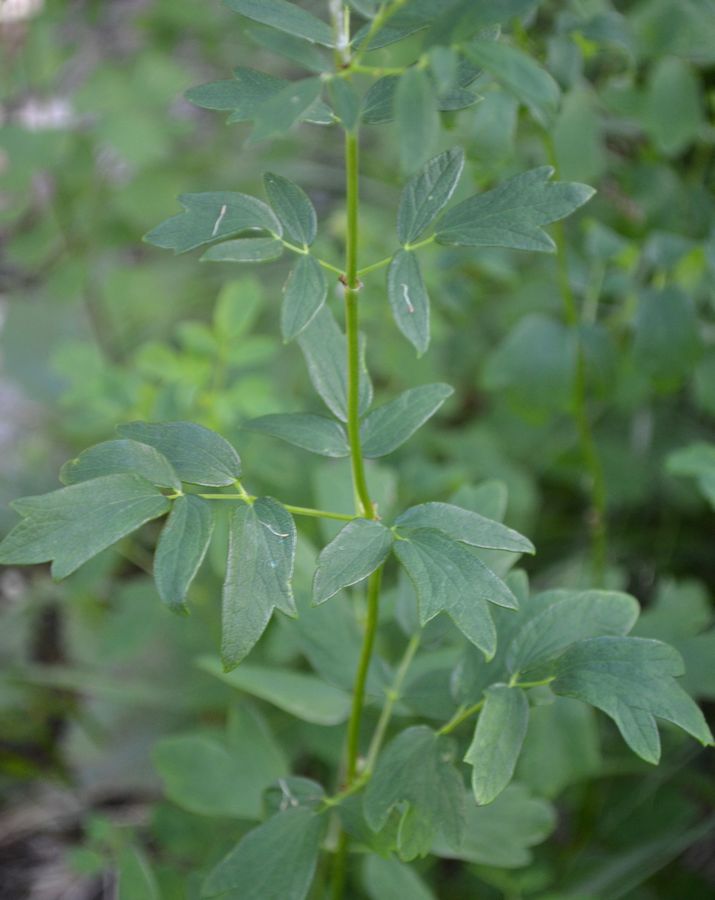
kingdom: Plantae
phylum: Tracheophyta
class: Magnoliopsida
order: Ranunculales
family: Ranunculaceae
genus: Thalictrum
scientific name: Thalictrum flavum
